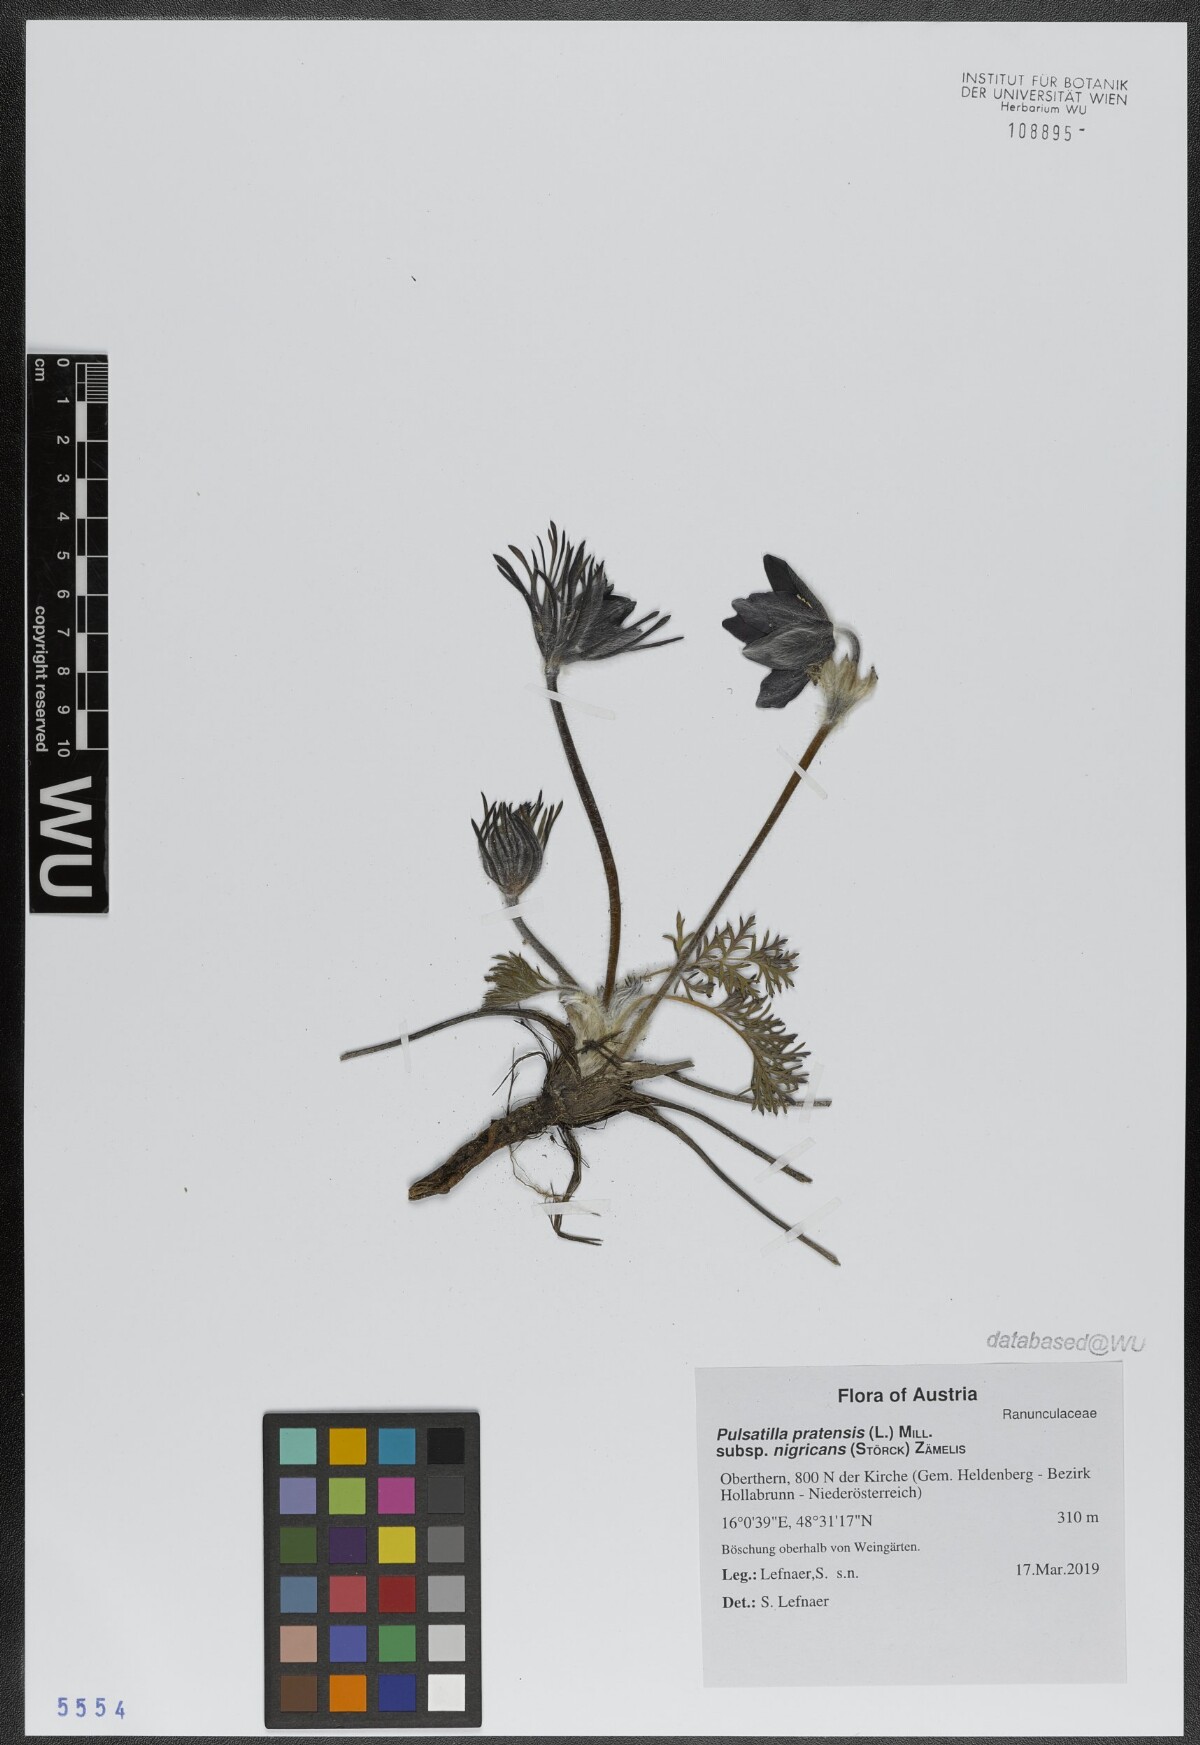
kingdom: Plantae
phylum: Tracheophyta
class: Magnoliopsida
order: Ranunculales
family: Ranunculaceae
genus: Pulsatilla
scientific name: Pulsatilla pratensis
